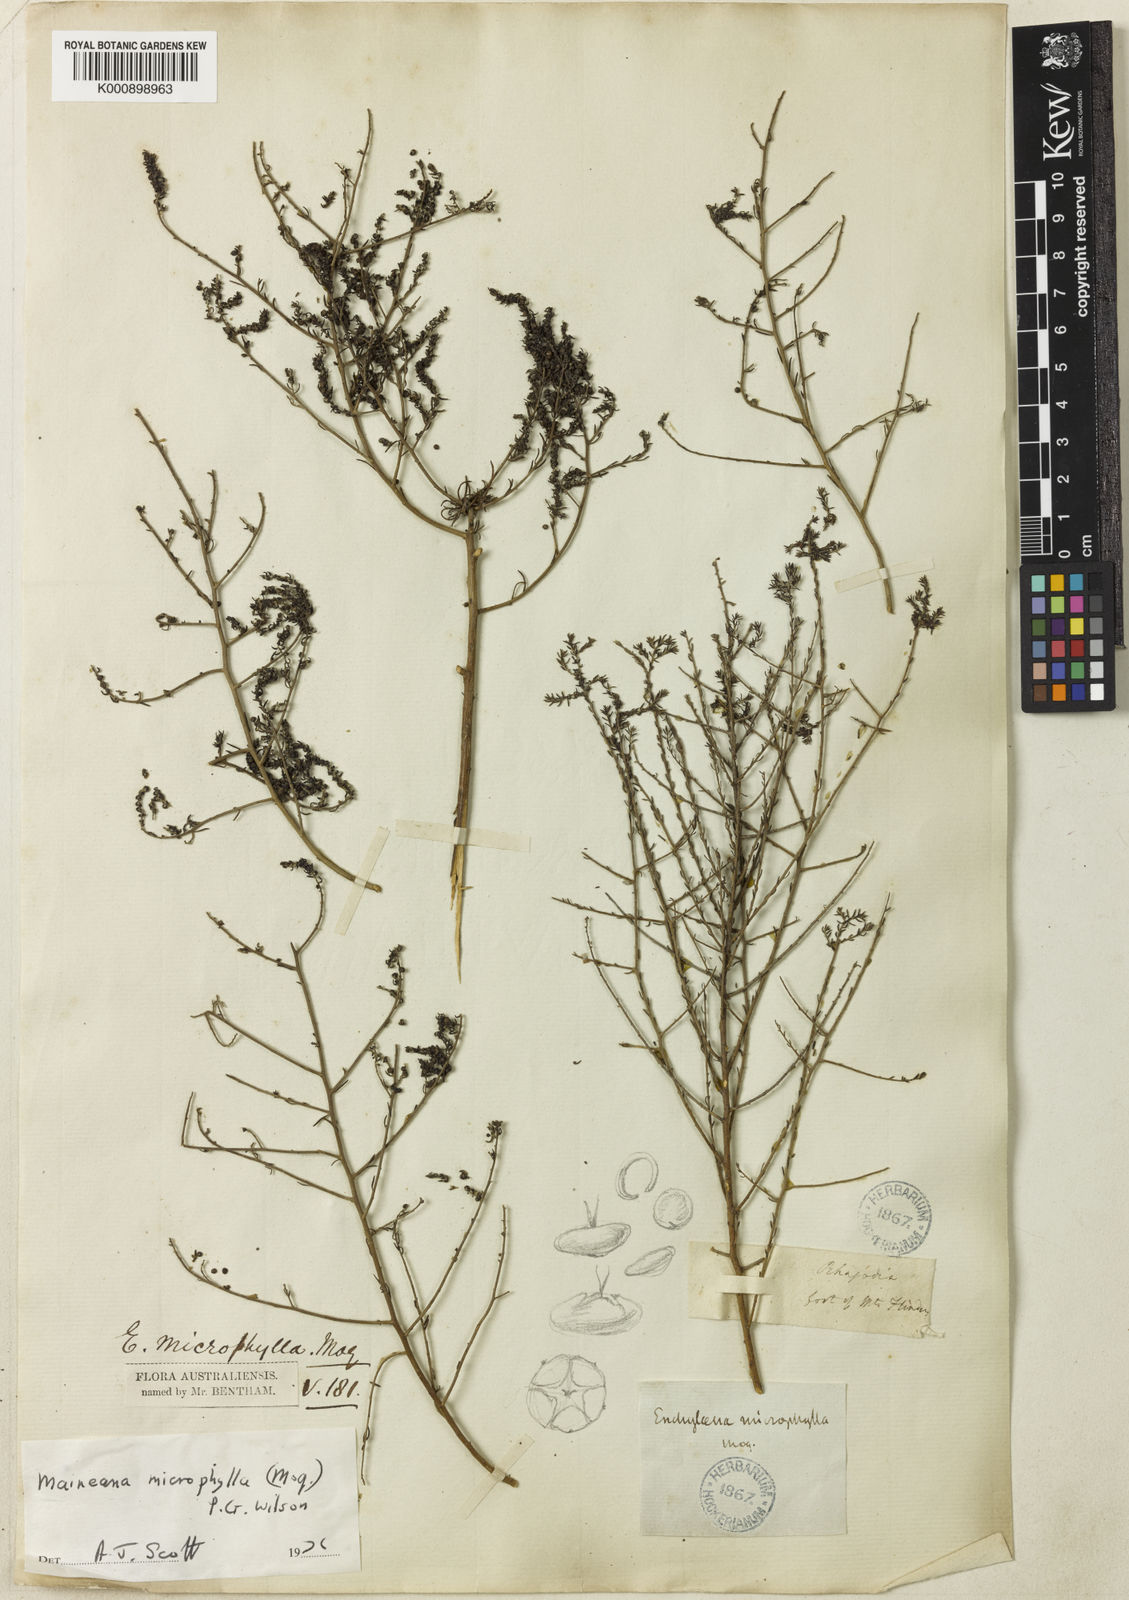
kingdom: Plantae
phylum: Tracheophyta
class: Magnoliopsida
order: Caryophyllales
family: Amaranthaceae
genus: Maireana
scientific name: Maireana microphylla
